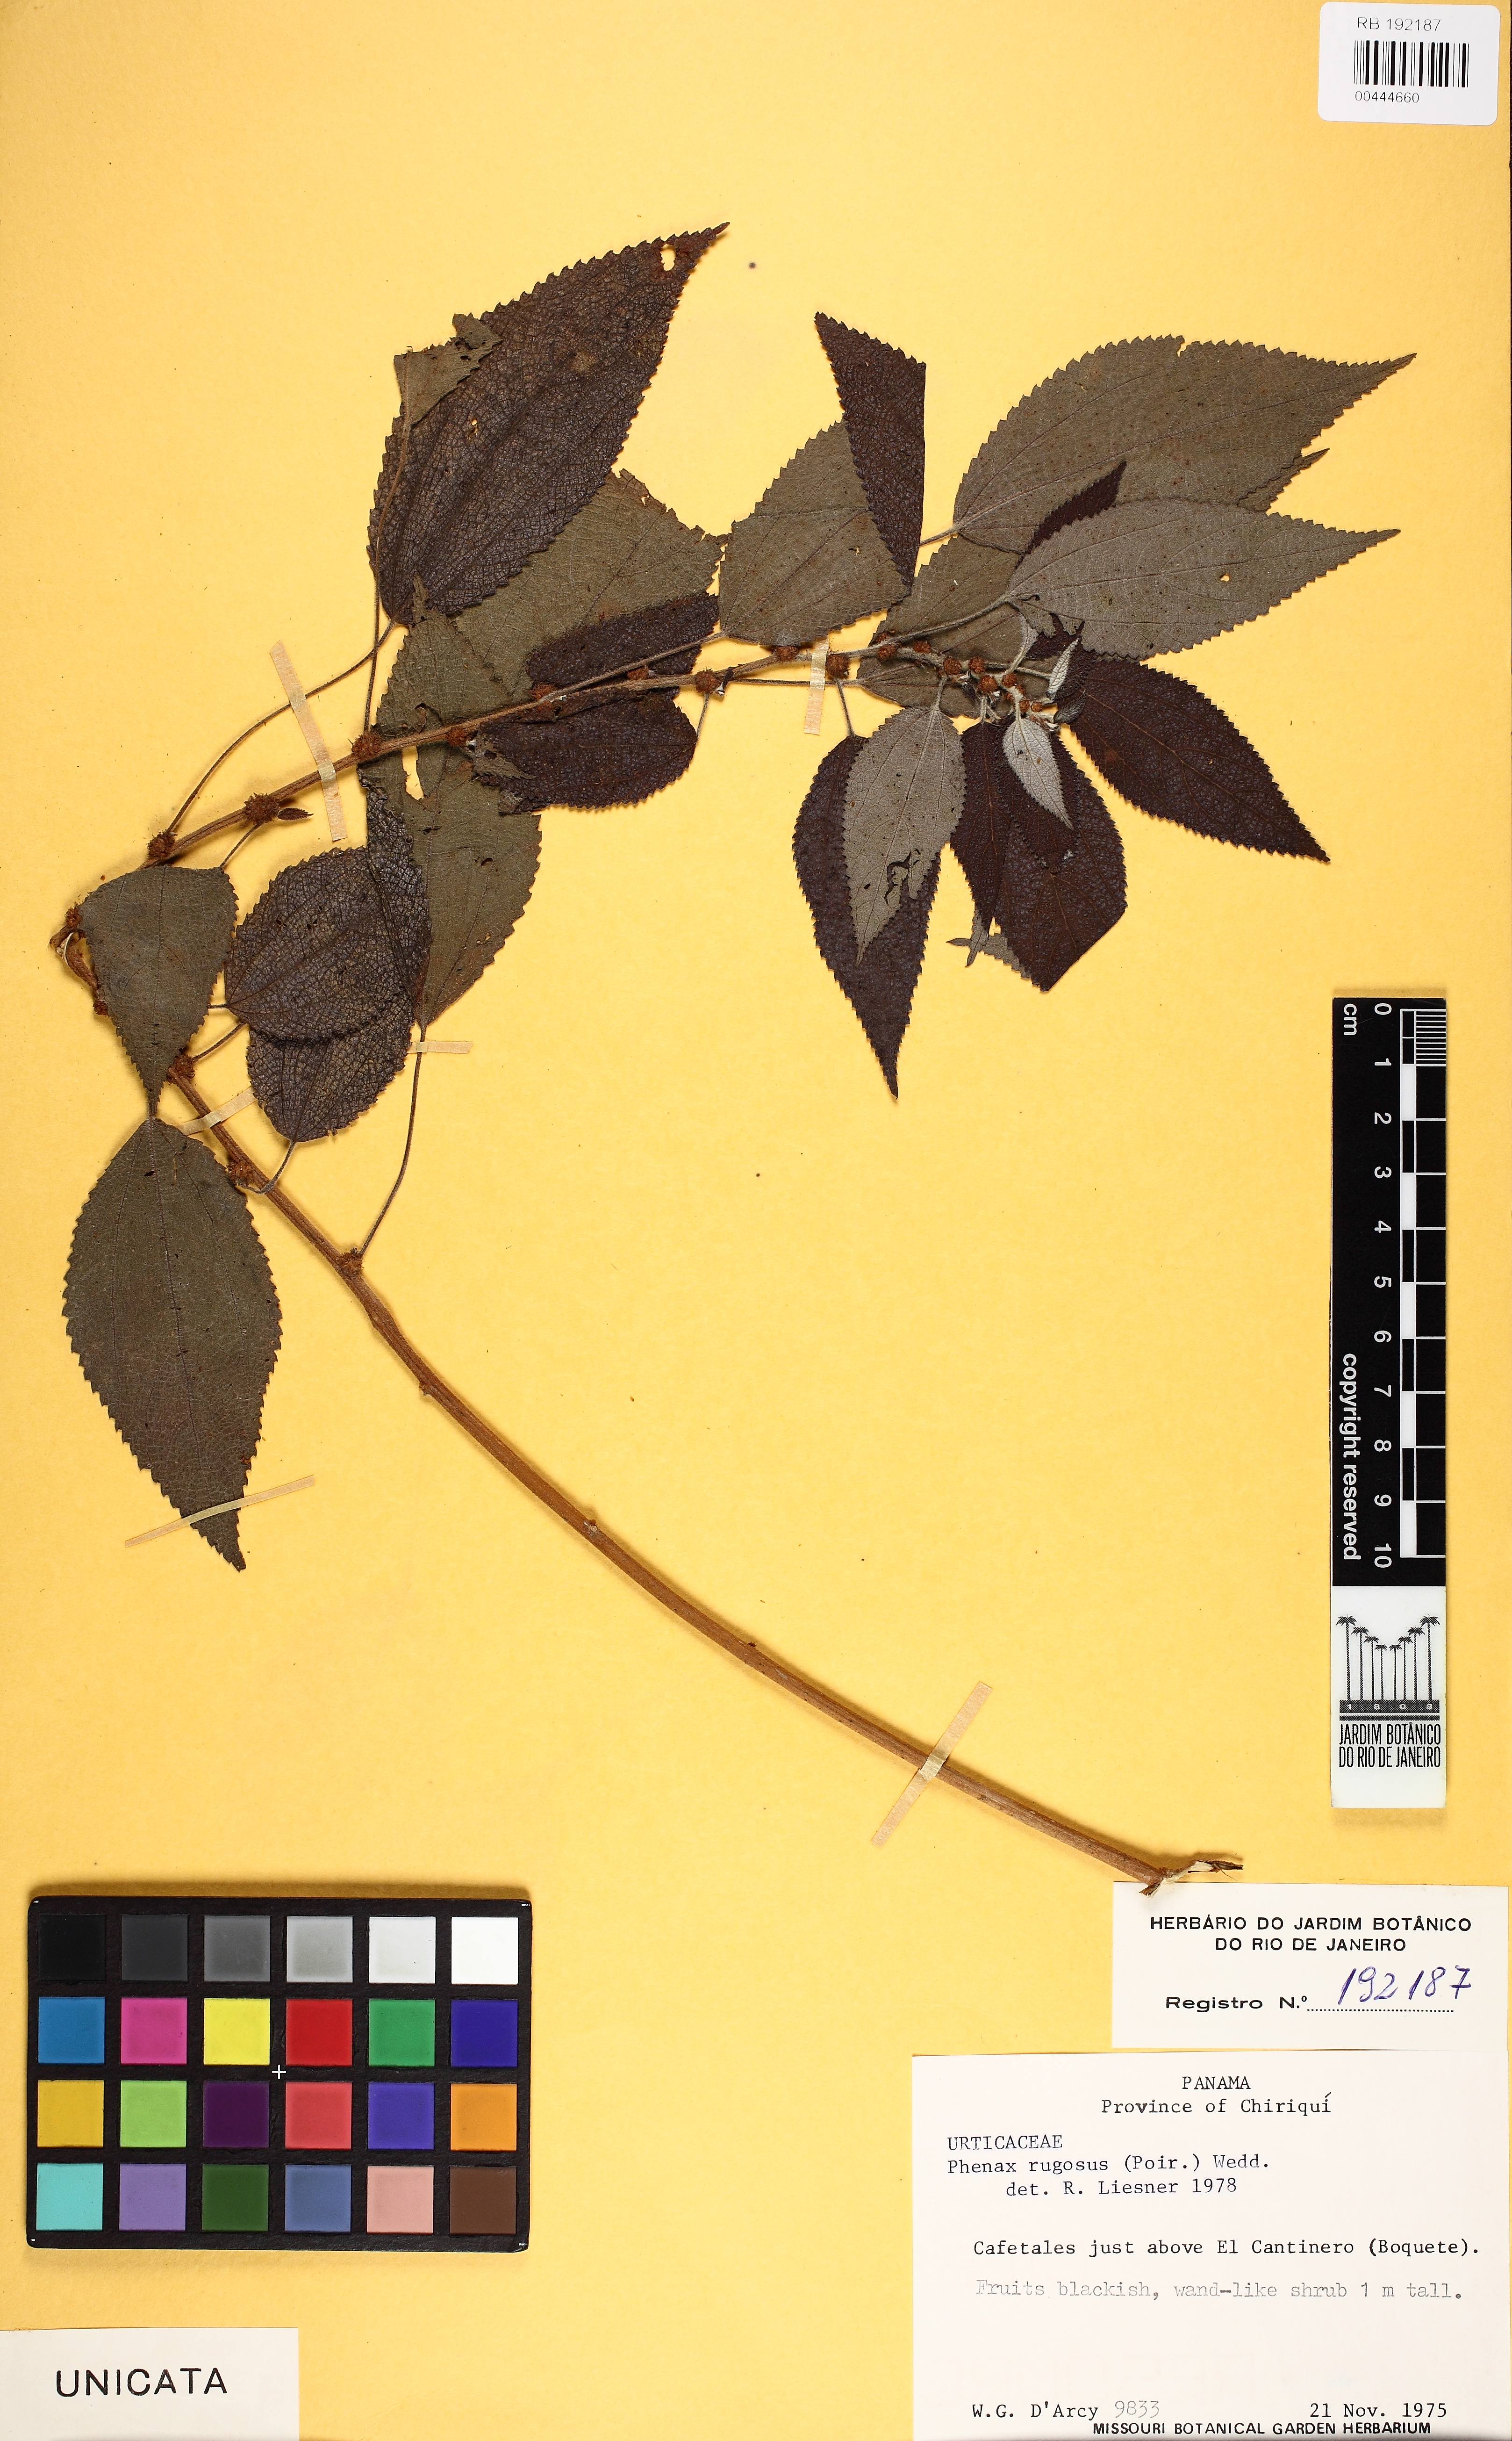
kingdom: Plantae
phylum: Tracheophyta
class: Magnoliopsida
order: Rosales
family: Urticaceae
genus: Phenax
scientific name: Phenax rugosus
